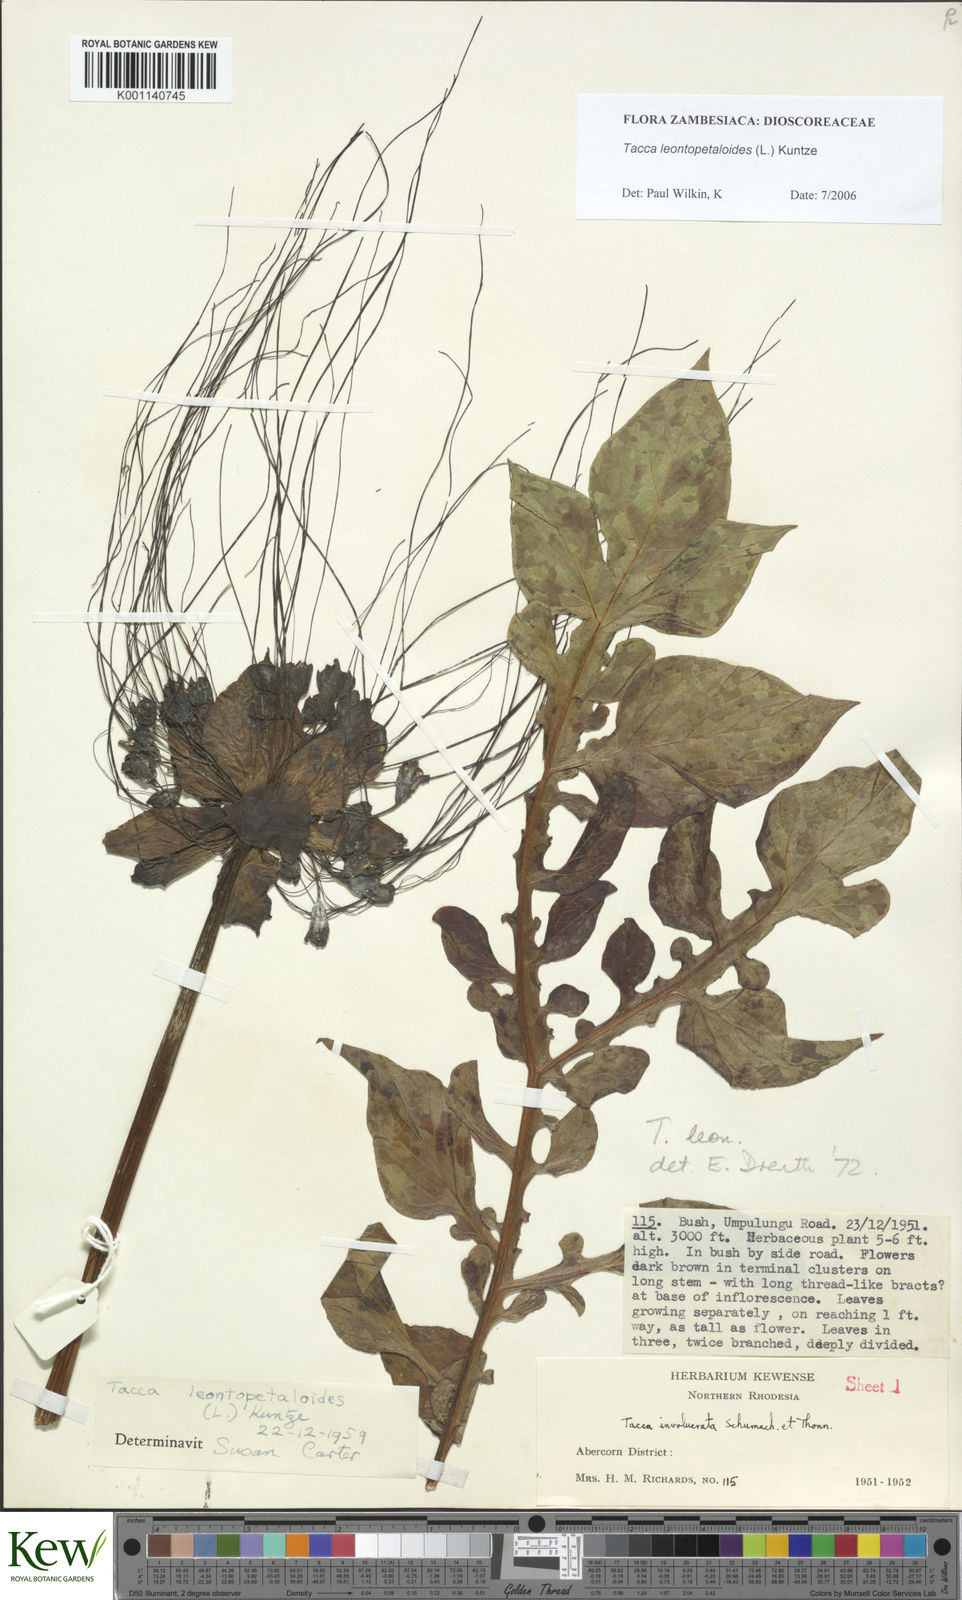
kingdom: Plantae
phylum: Tracheophyta
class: Liliopsida
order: Dioscoreales
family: Dioscoreaceae
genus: Tacca
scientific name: Tacca leontopetaloides
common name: Arrowroot
